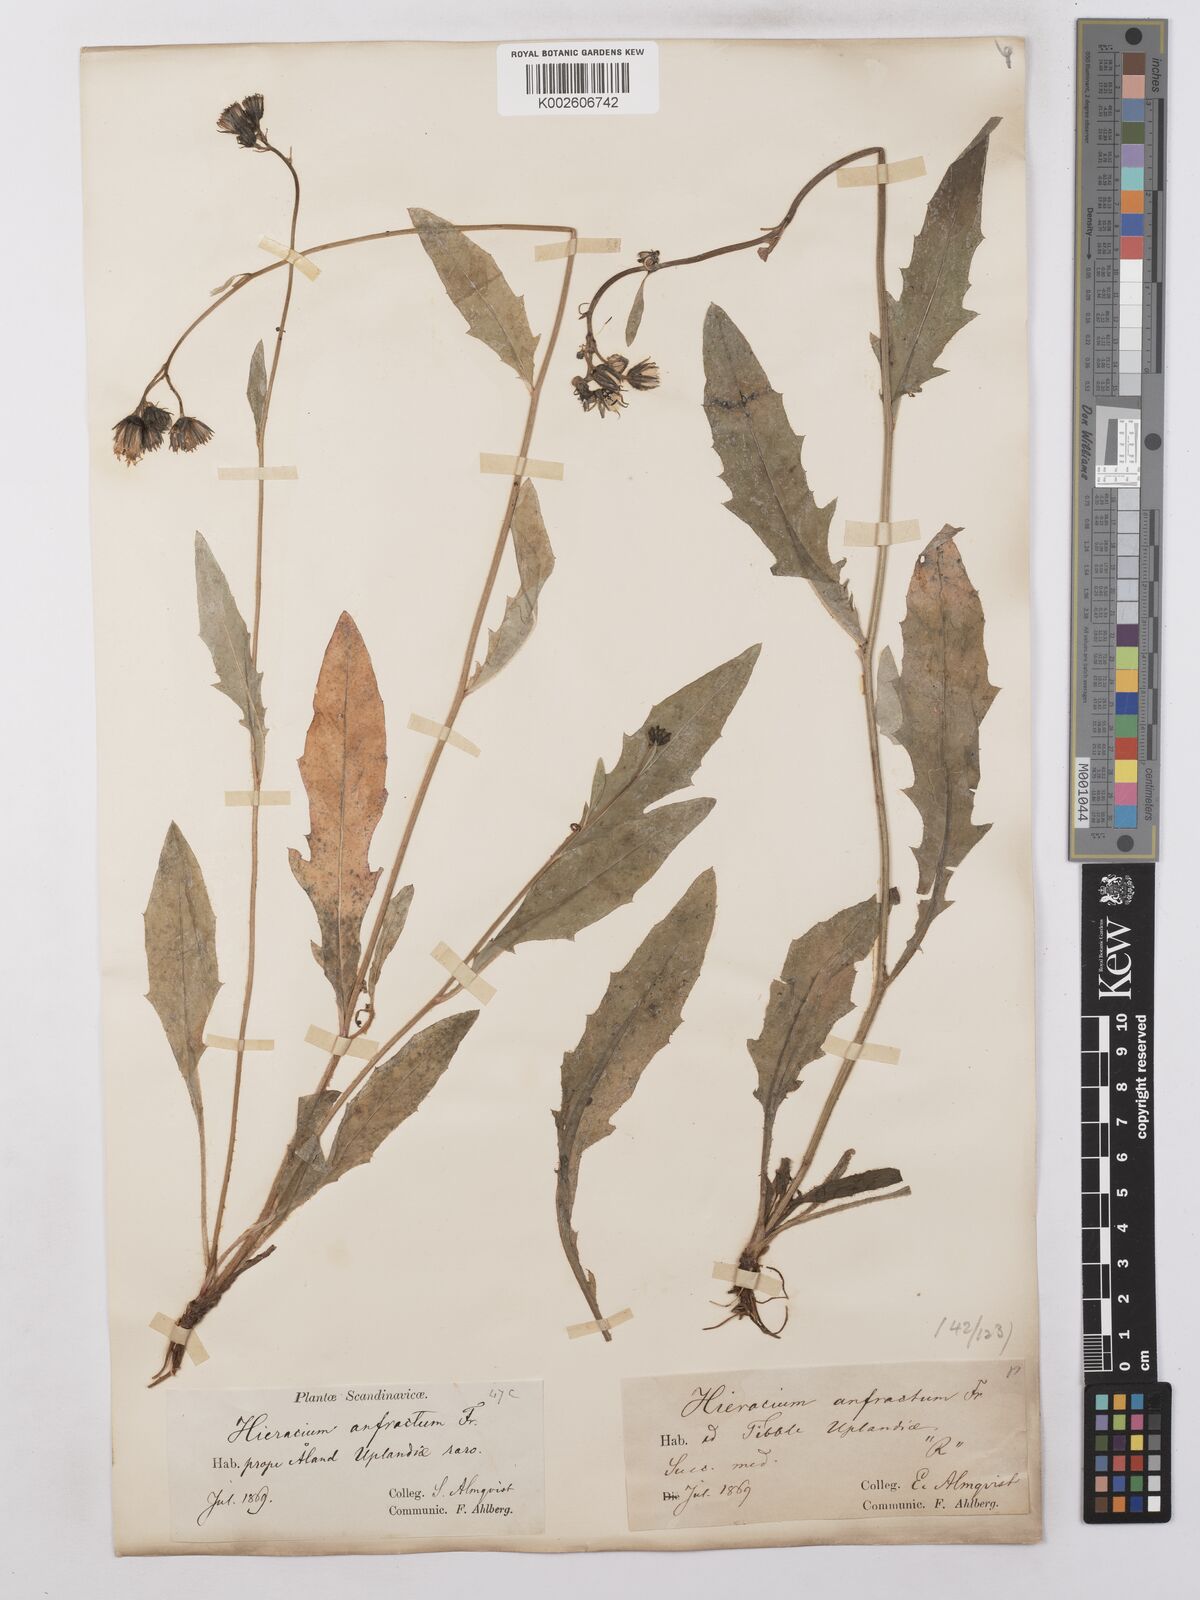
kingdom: Plantae
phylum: Tracheophyta
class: Magnoliopsida
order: Asterales
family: Asteraceae
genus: Hieracium
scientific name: Hieracium lachenalii
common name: Common hawkweed
